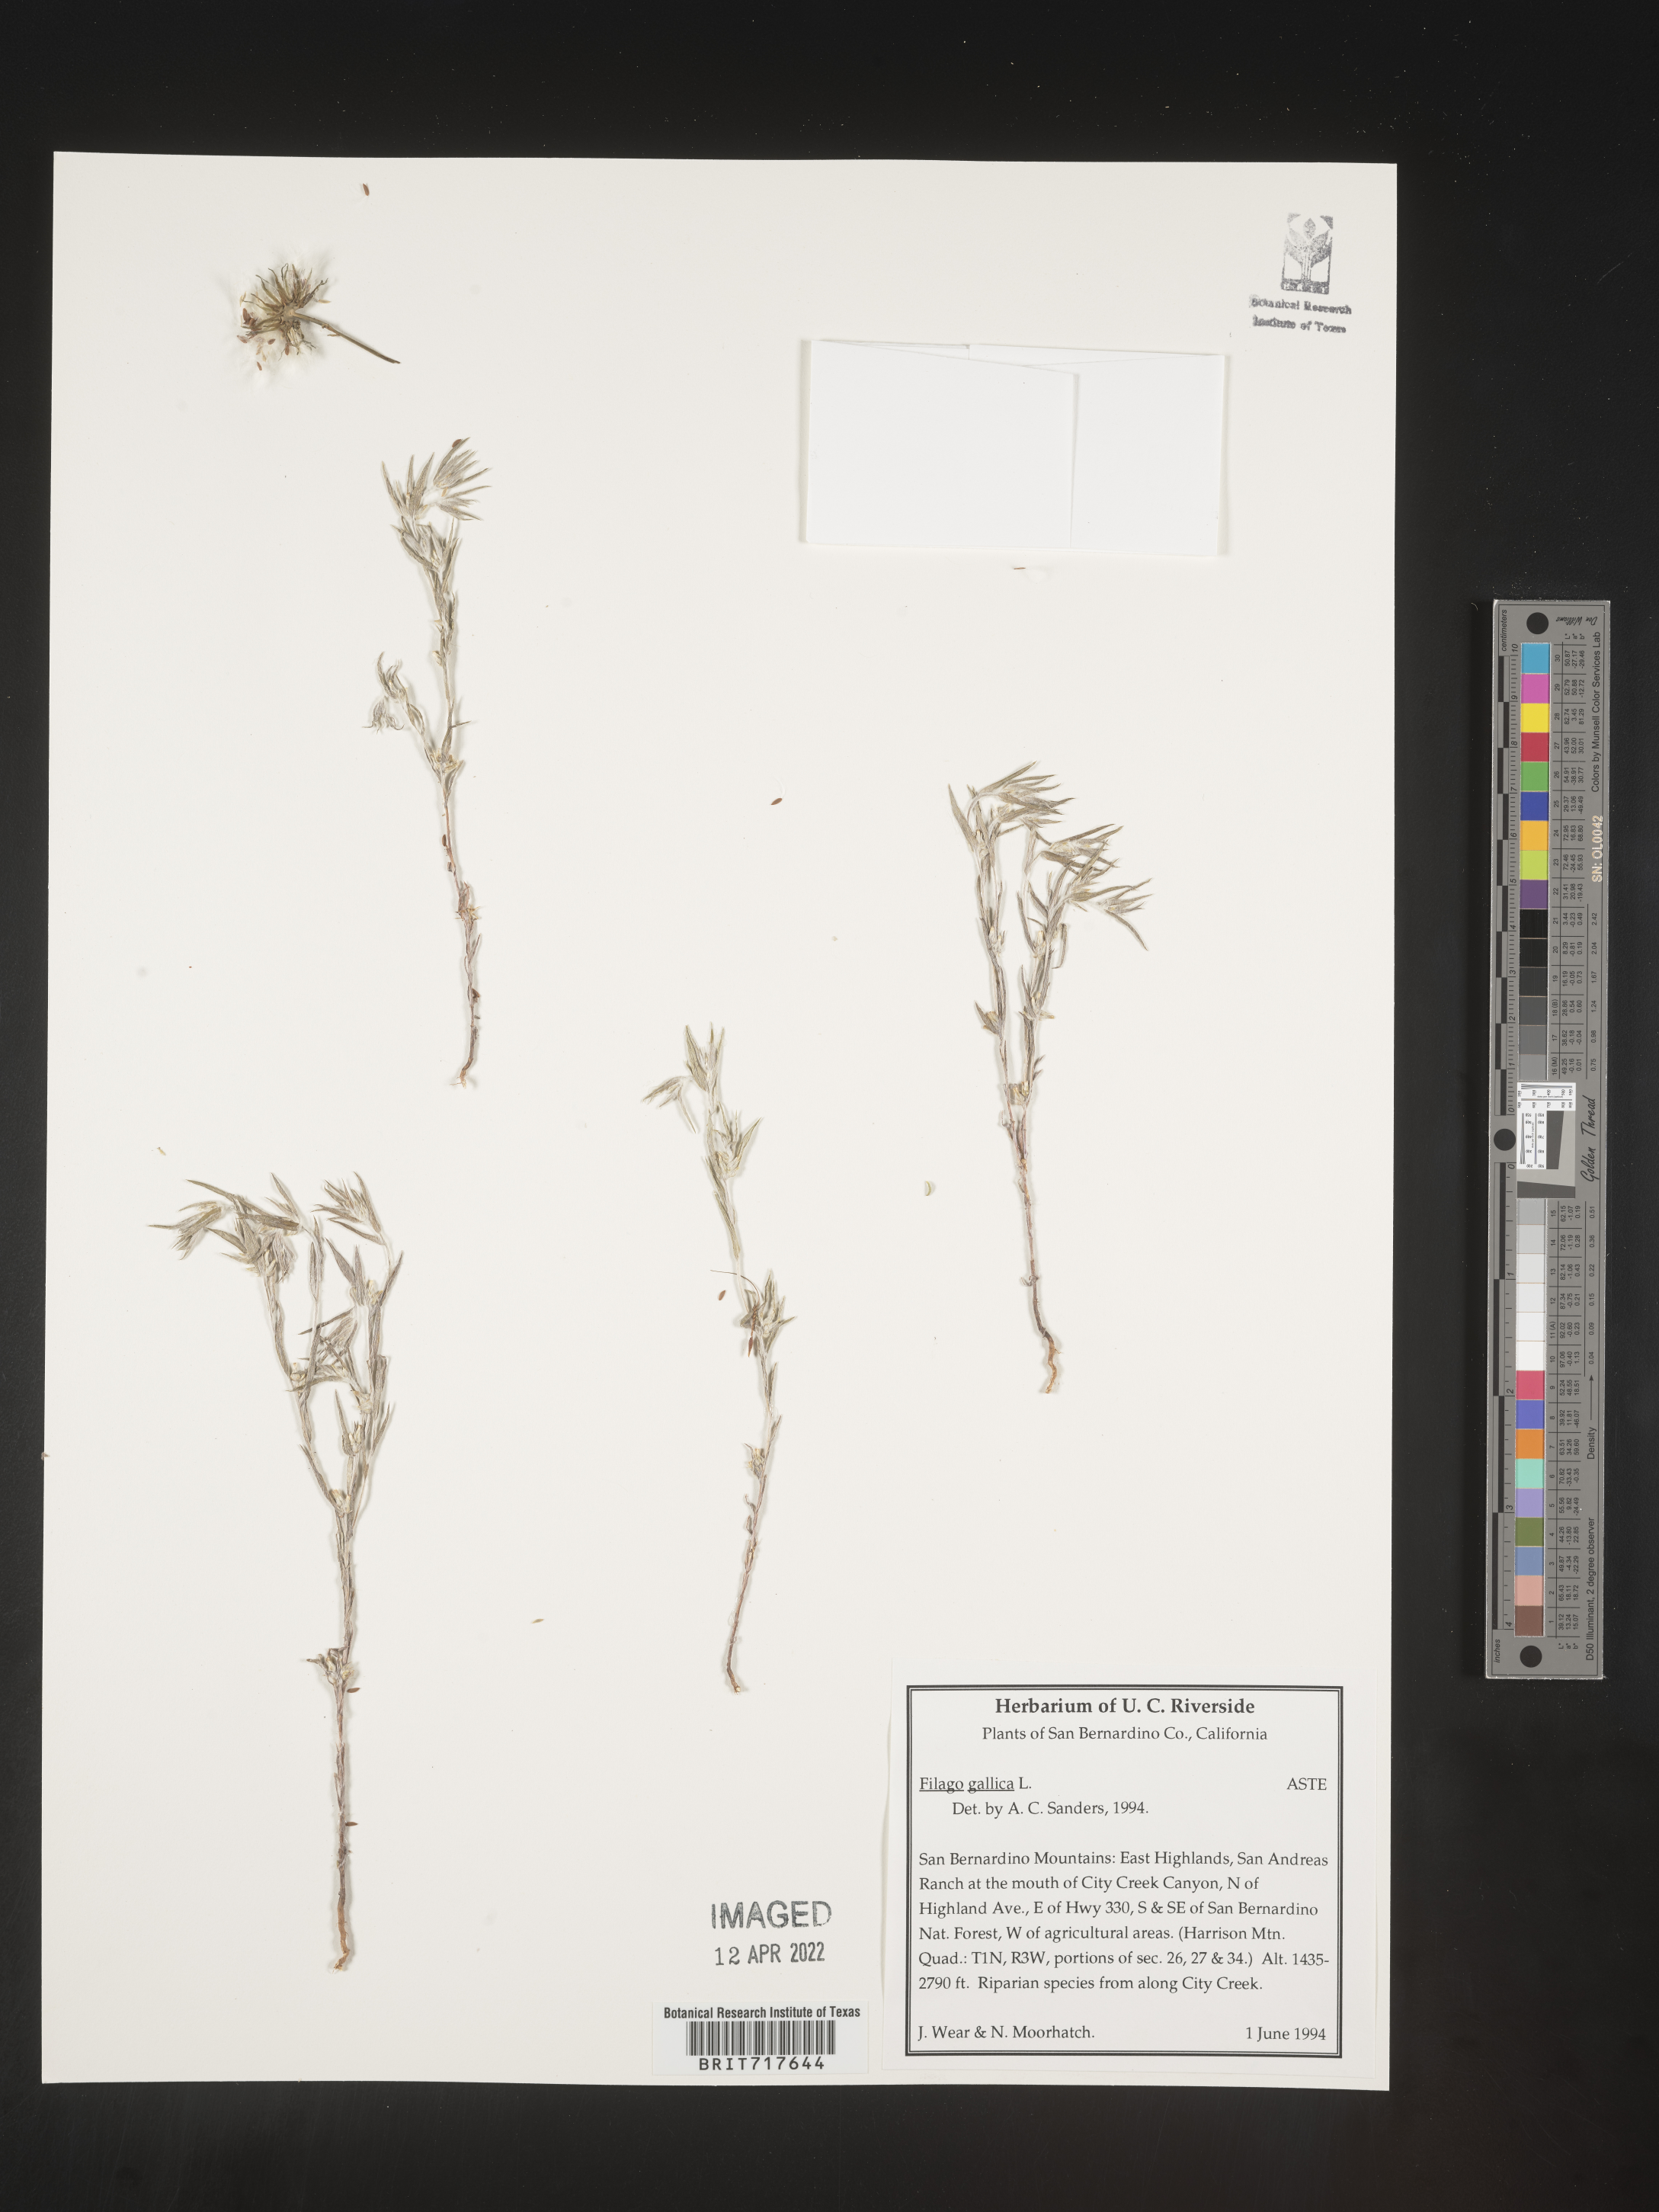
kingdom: Plantae
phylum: Tracheophyta
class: Magnoliopsida
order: Asterales
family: Asteraceae
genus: Logfia
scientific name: Logfia gallica
